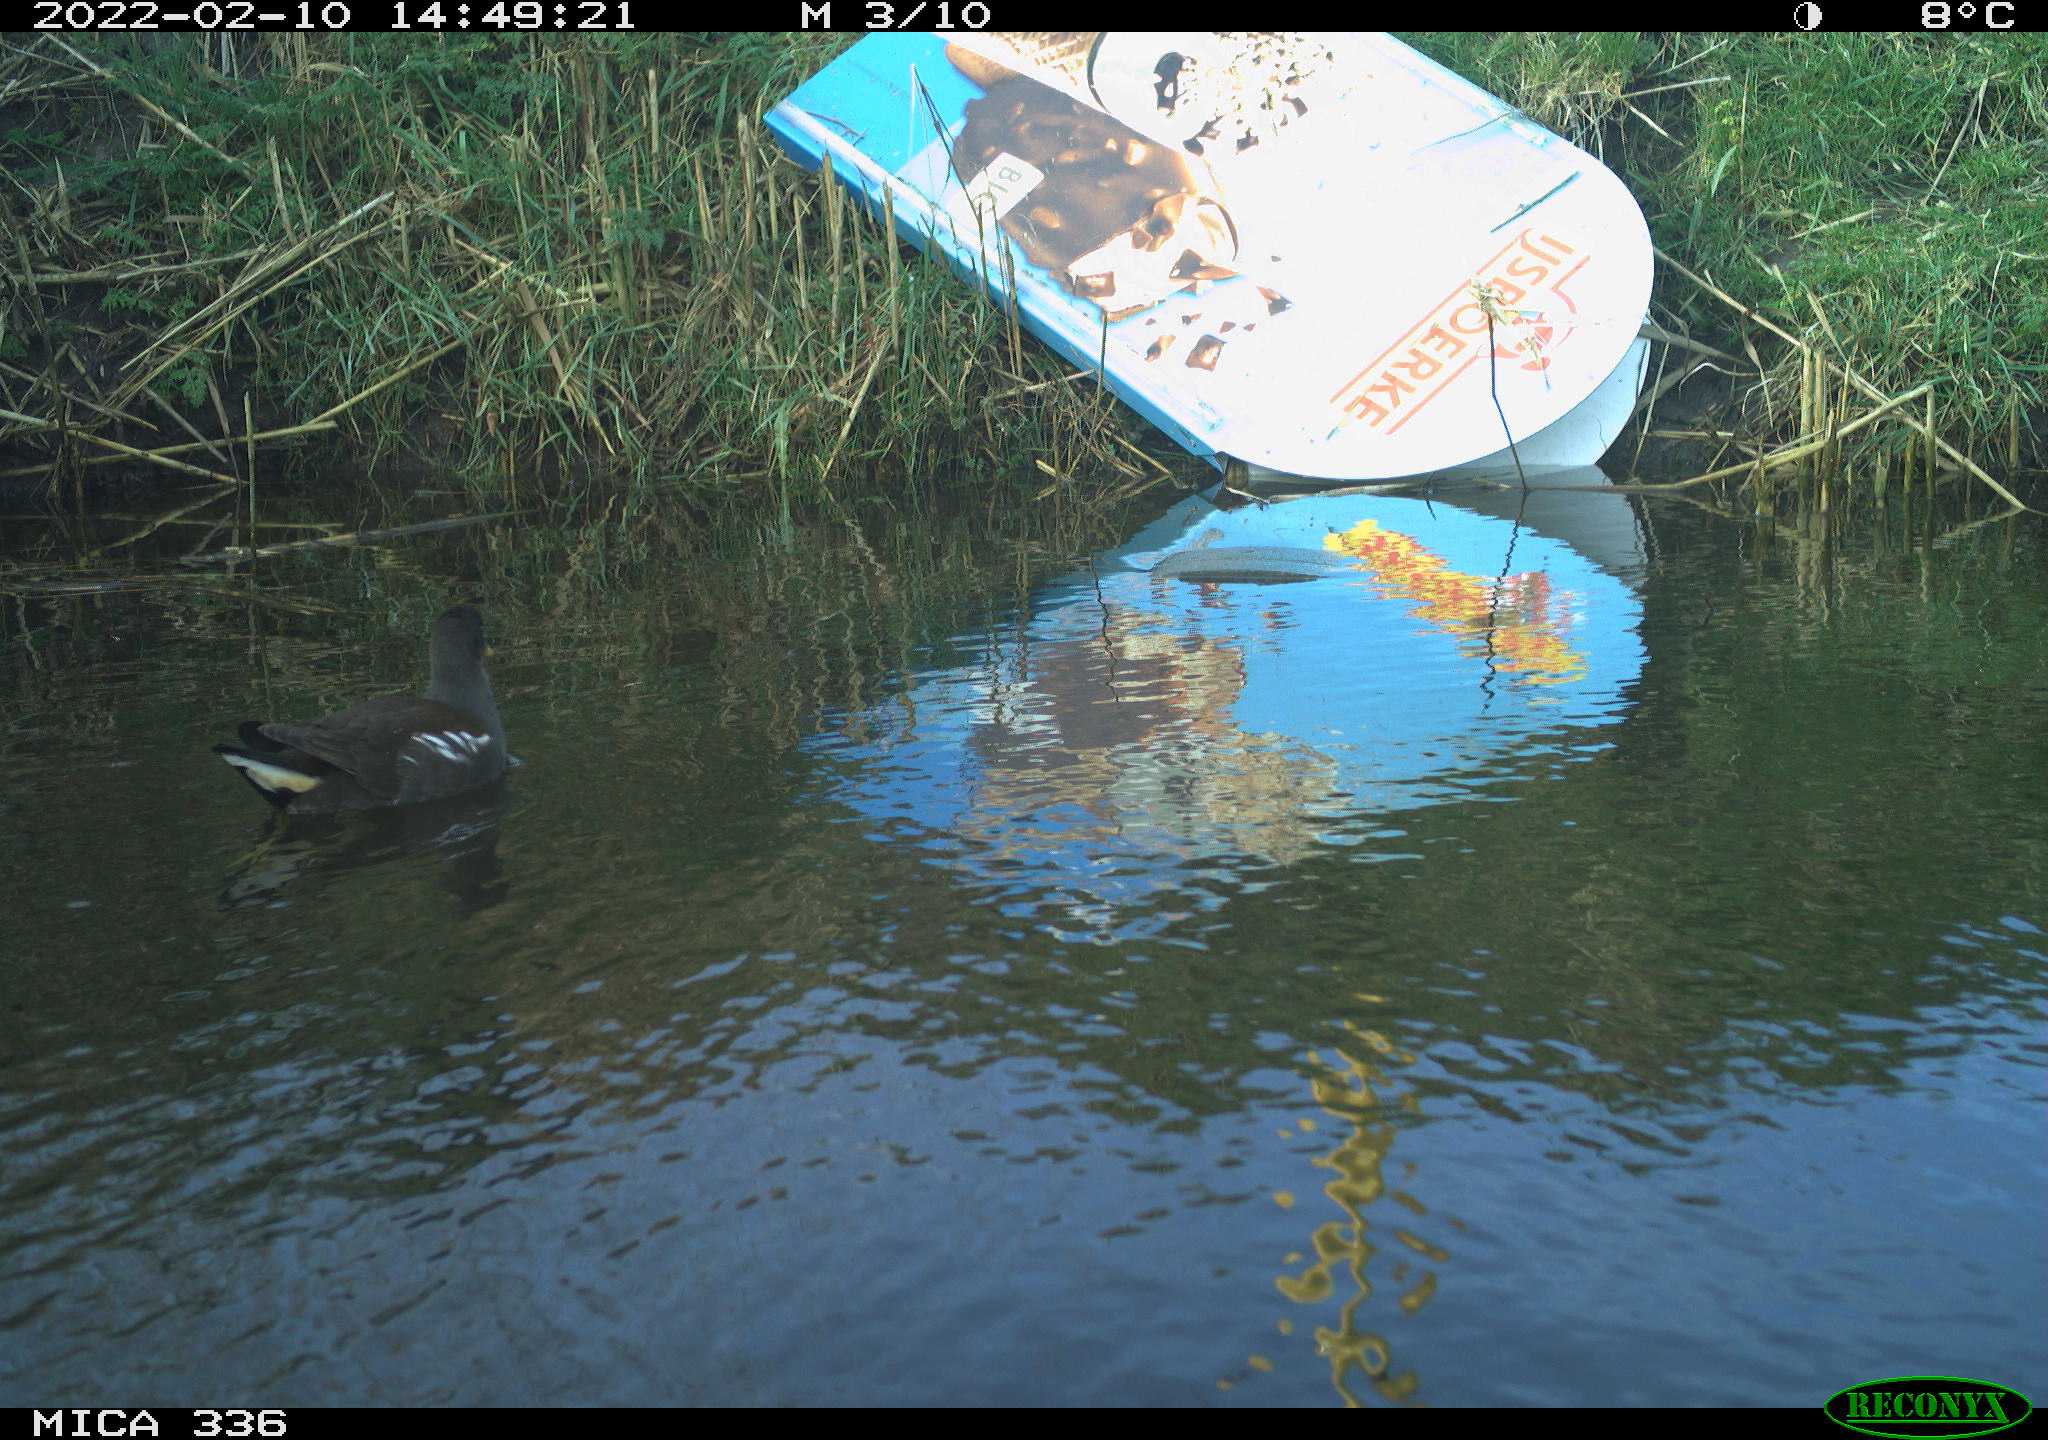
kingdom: Animalia
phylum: Chordata
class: Aves
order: Gruiformes
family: Rallidae
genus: Gallinula
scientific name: Gallinula chloropus
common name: Common moorhen
